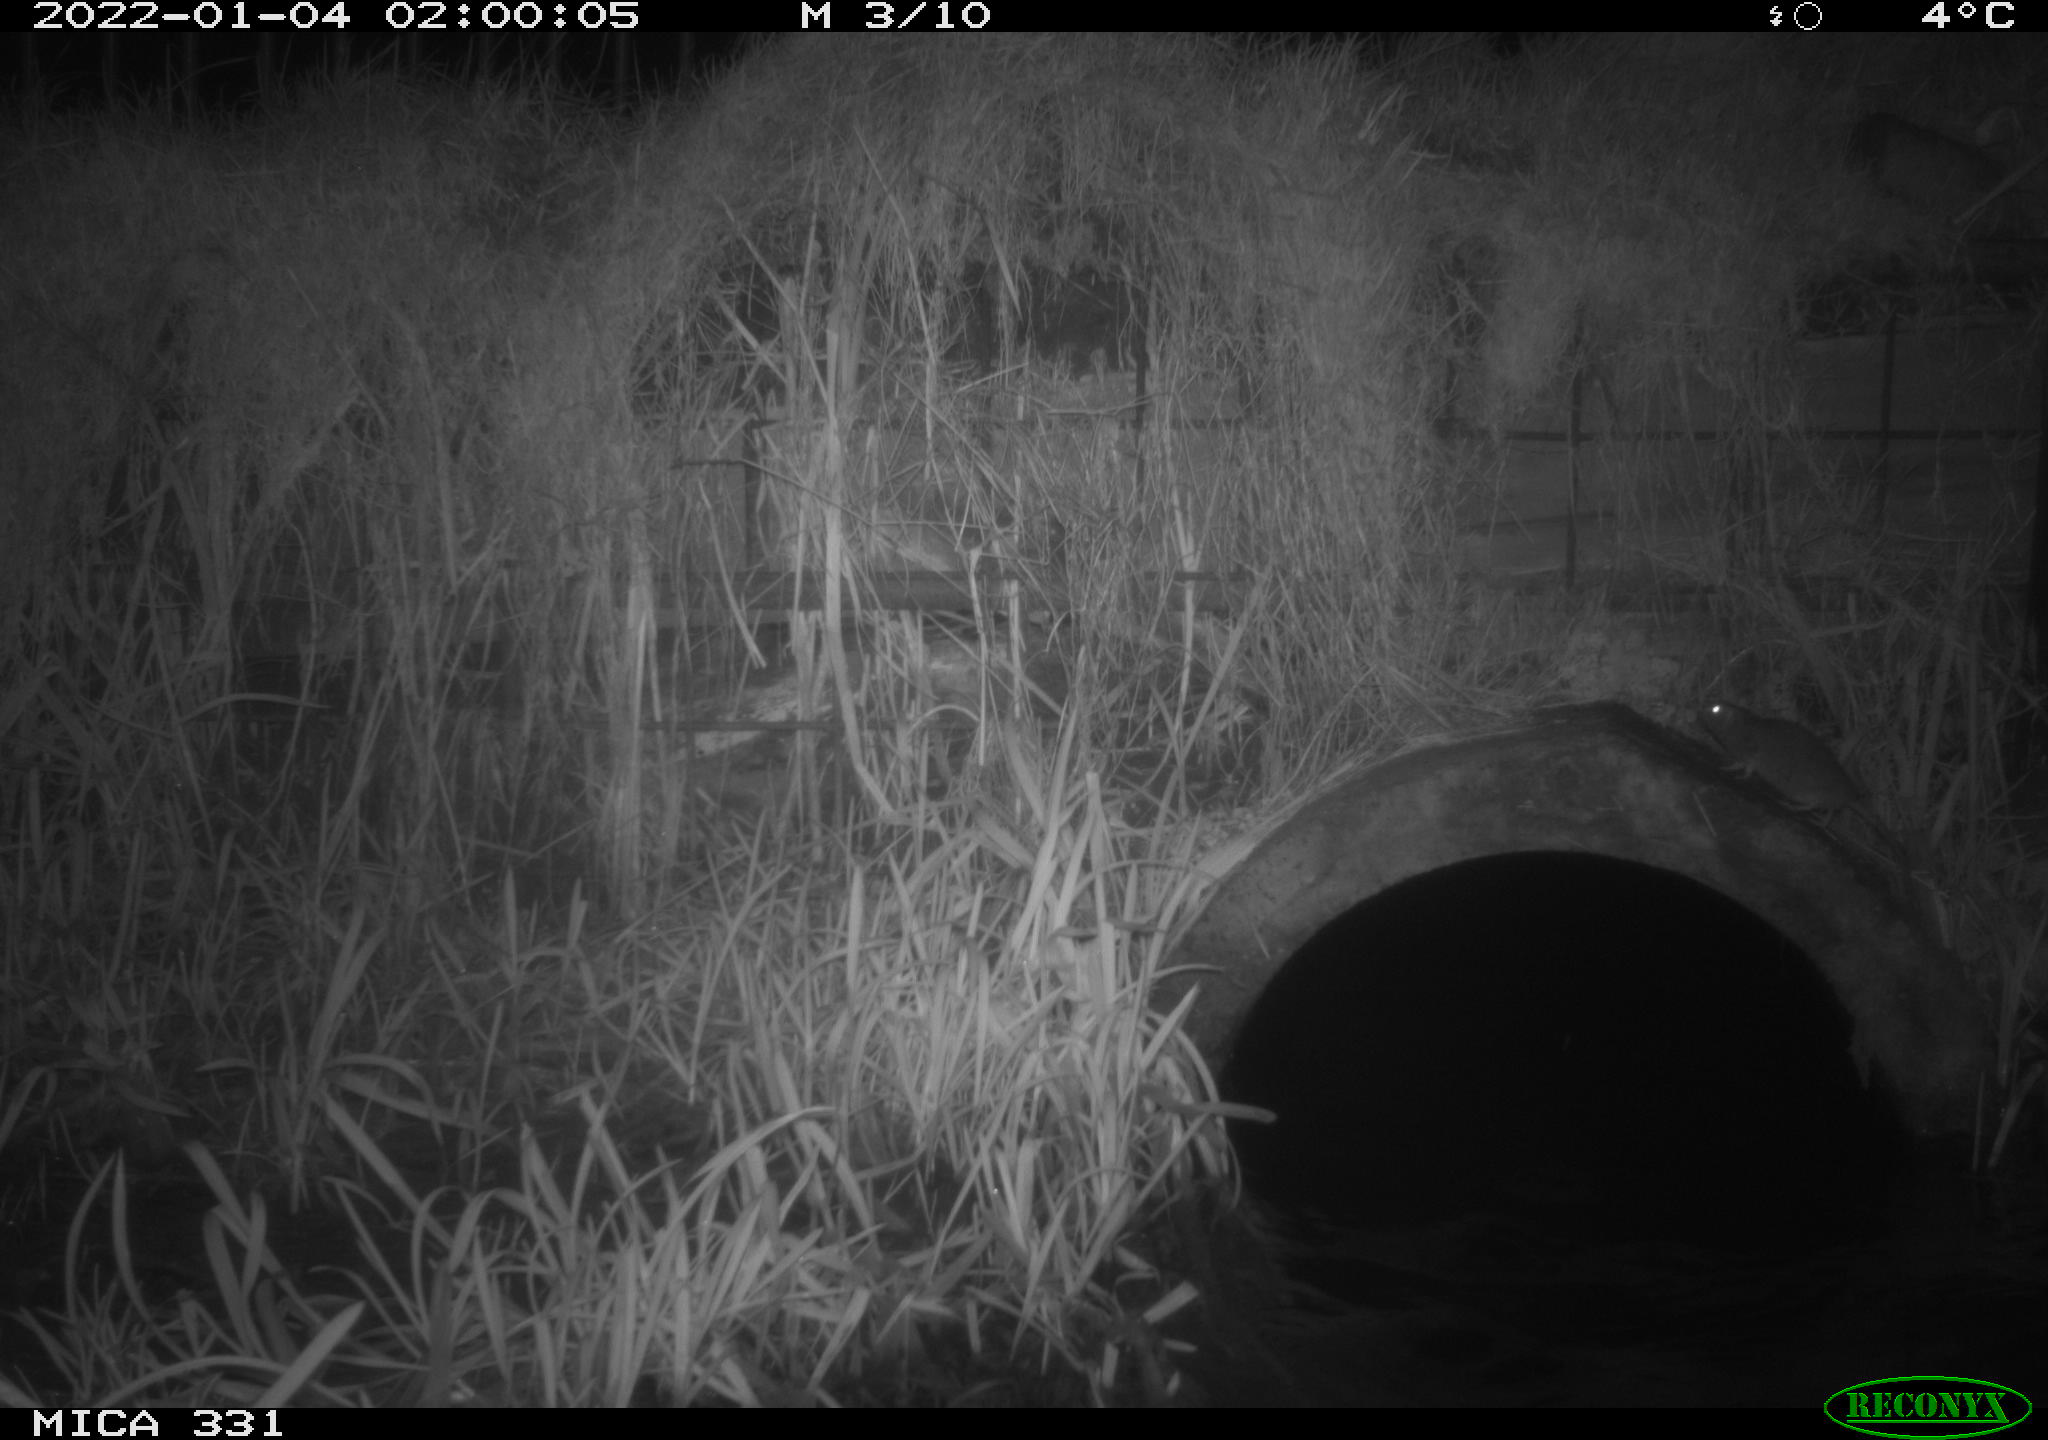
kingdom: Animalia
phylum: Chordata
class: Mammalia
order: Rodentia
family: Muridae
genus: Rattus
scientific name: Rattus norvegicus
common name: Brown rat
